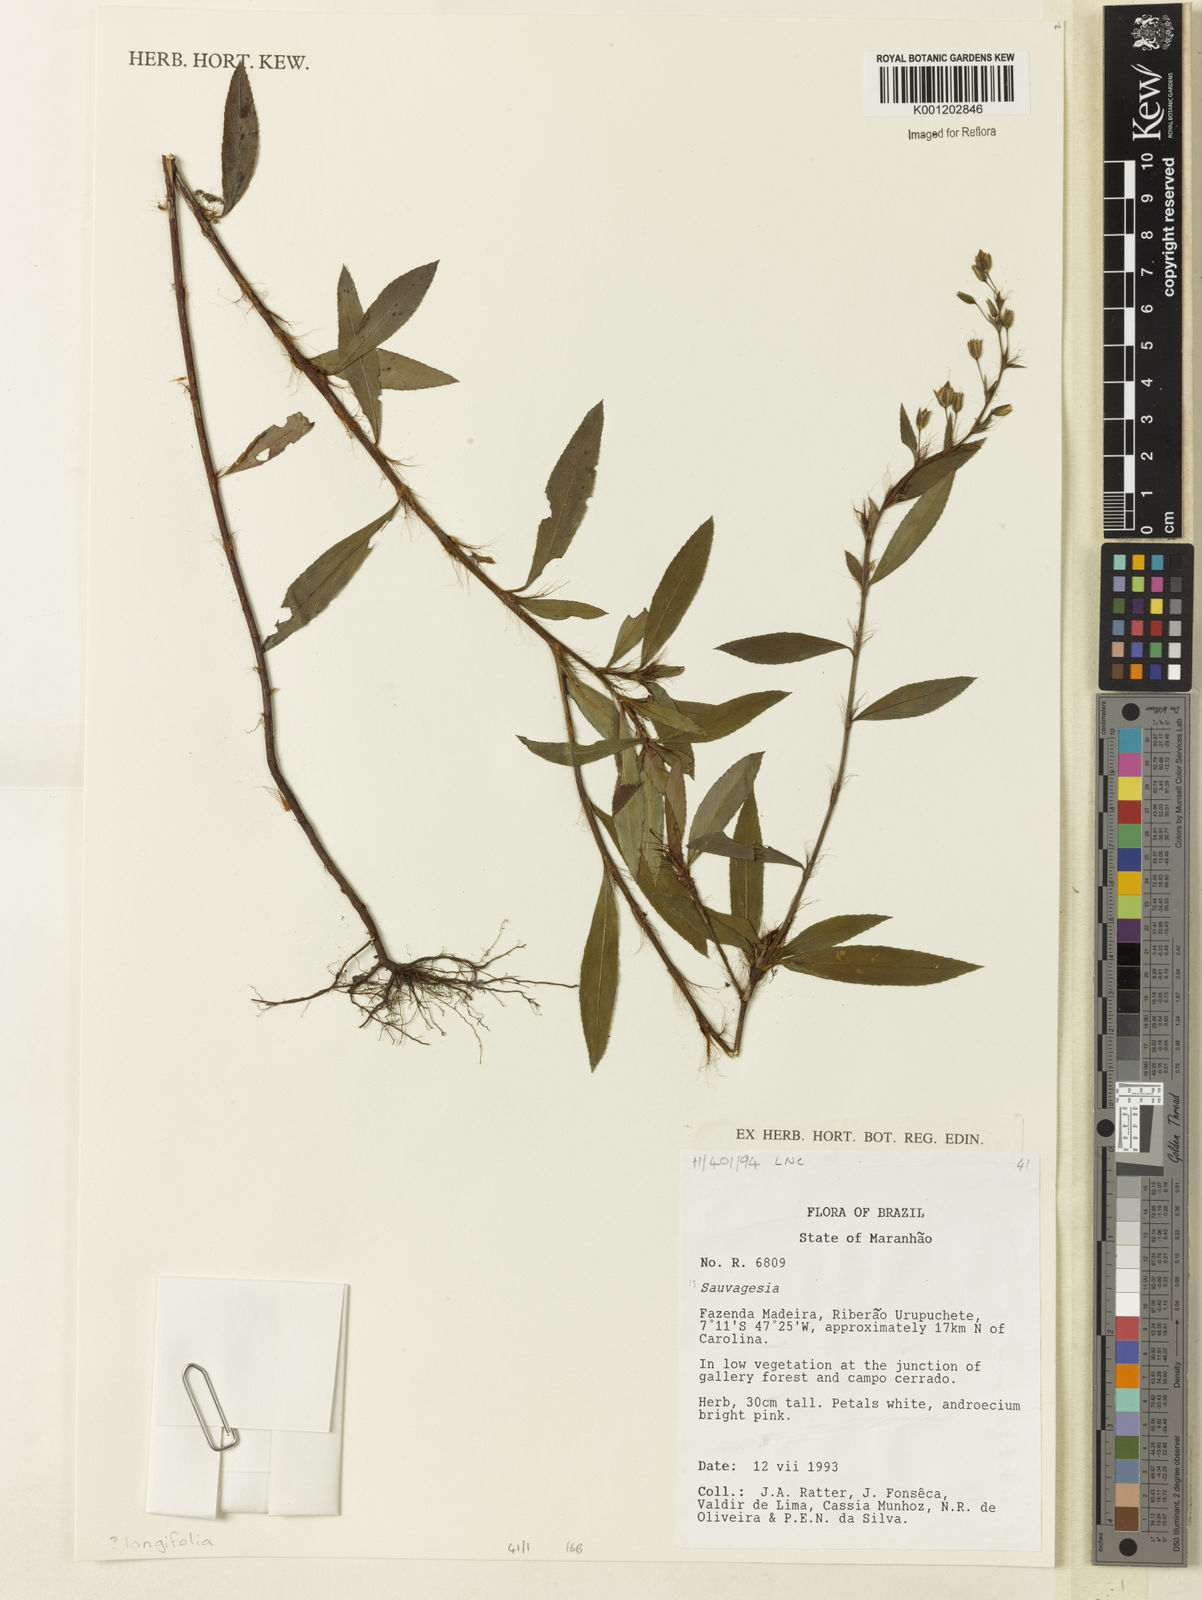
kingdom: Plantae
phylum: Tracheophyta
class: Magnoliopsida
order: Malpighiales
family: Ochnaceae
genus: Sauvagesia
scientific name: Sauvagesia longifolia
